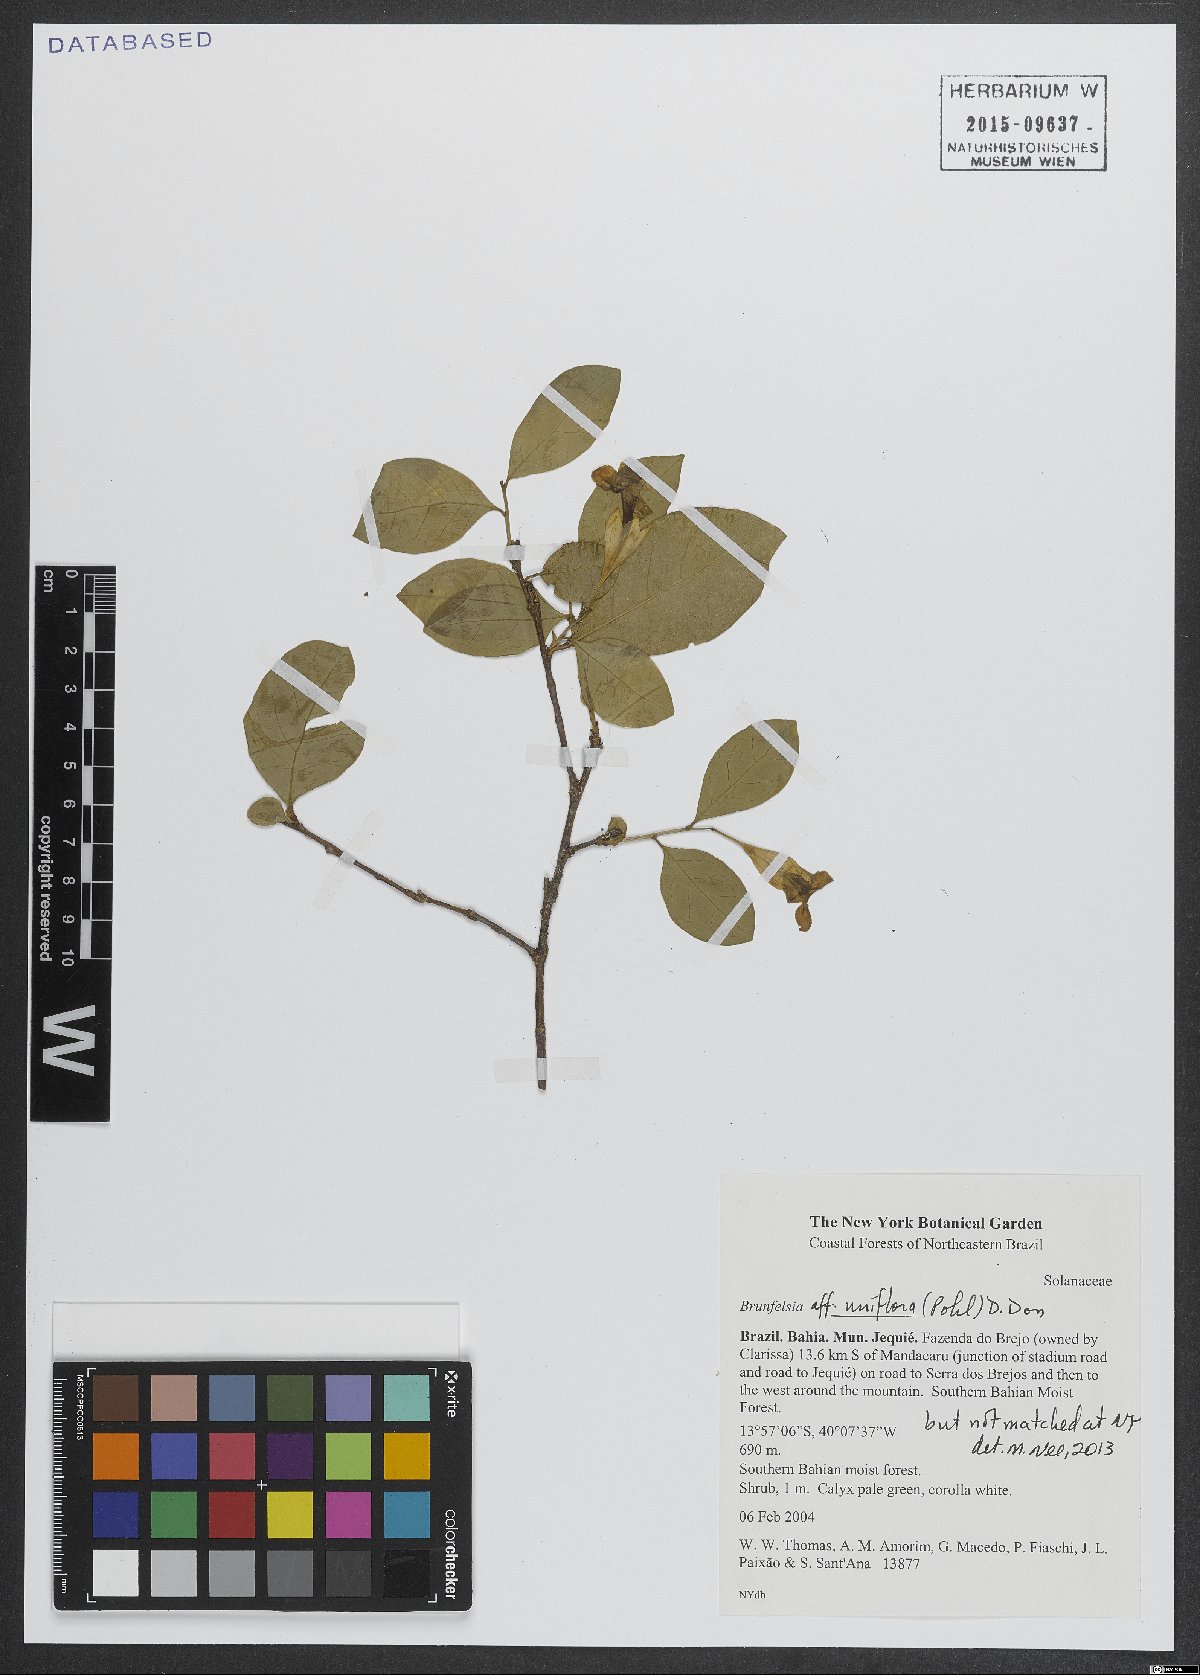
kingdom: Plantae
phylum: Tracheophyta
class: Magnoliopsida
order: Solanales
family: Solanaceae
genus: Brunfelsia
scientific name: Brunfelsia uniflora
